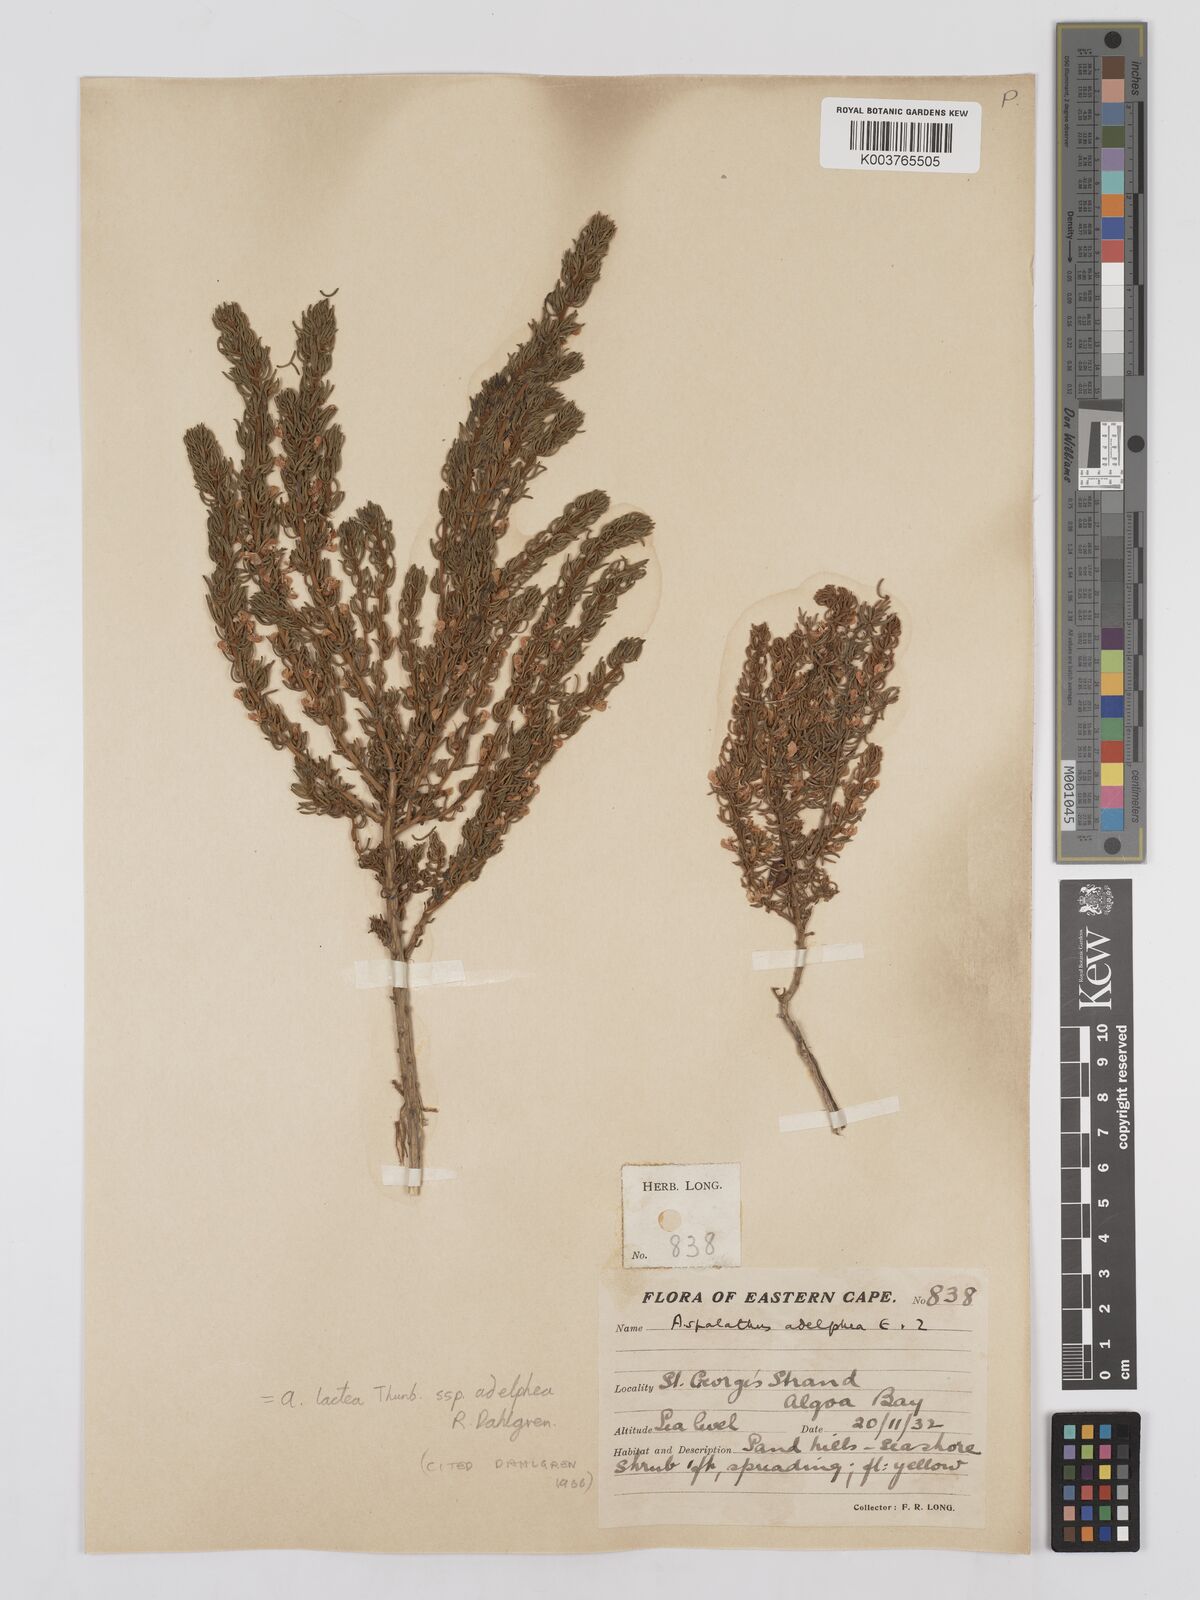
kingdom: Plantae
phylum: Tracheophyta
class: Magnoliopsida
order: Fabales
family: Fabaceae
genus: Aspalathus
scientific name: Aspalathus lactea
